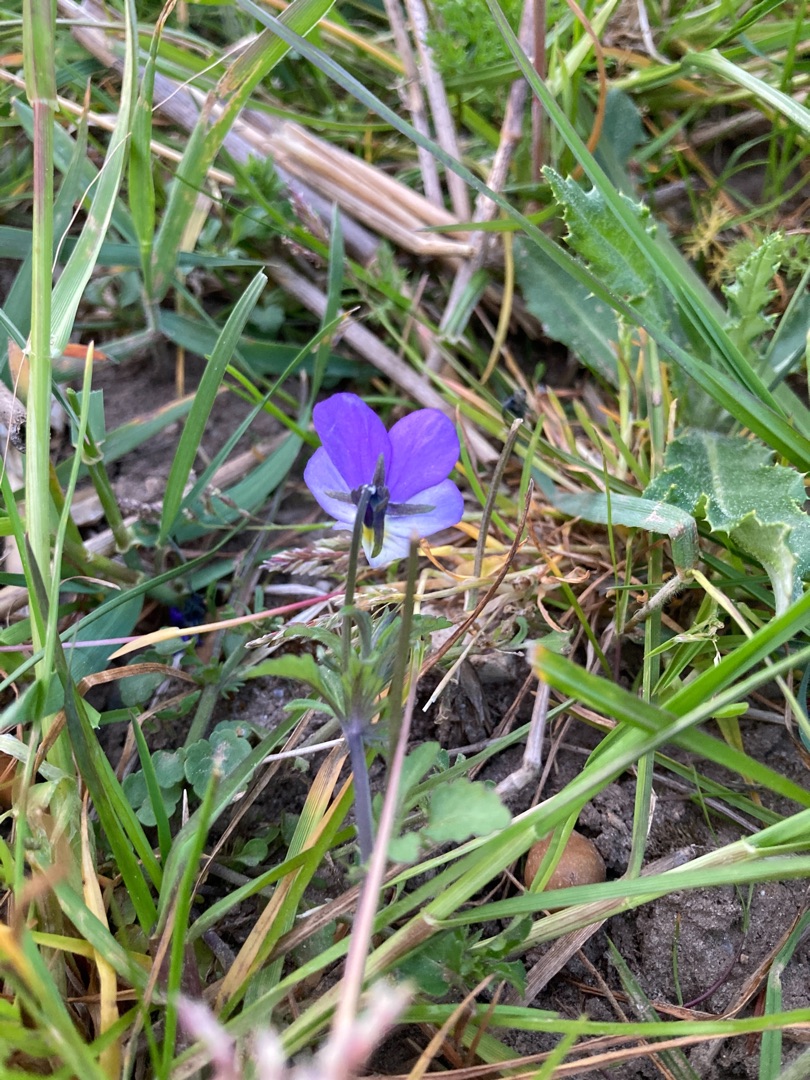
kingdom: Plantae
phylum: Tracheophyta
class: Magnoliopsida
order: Malpighiales
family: Violaceae
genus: Viola
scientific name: Viola tricolor
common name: Stedmoderblomst
